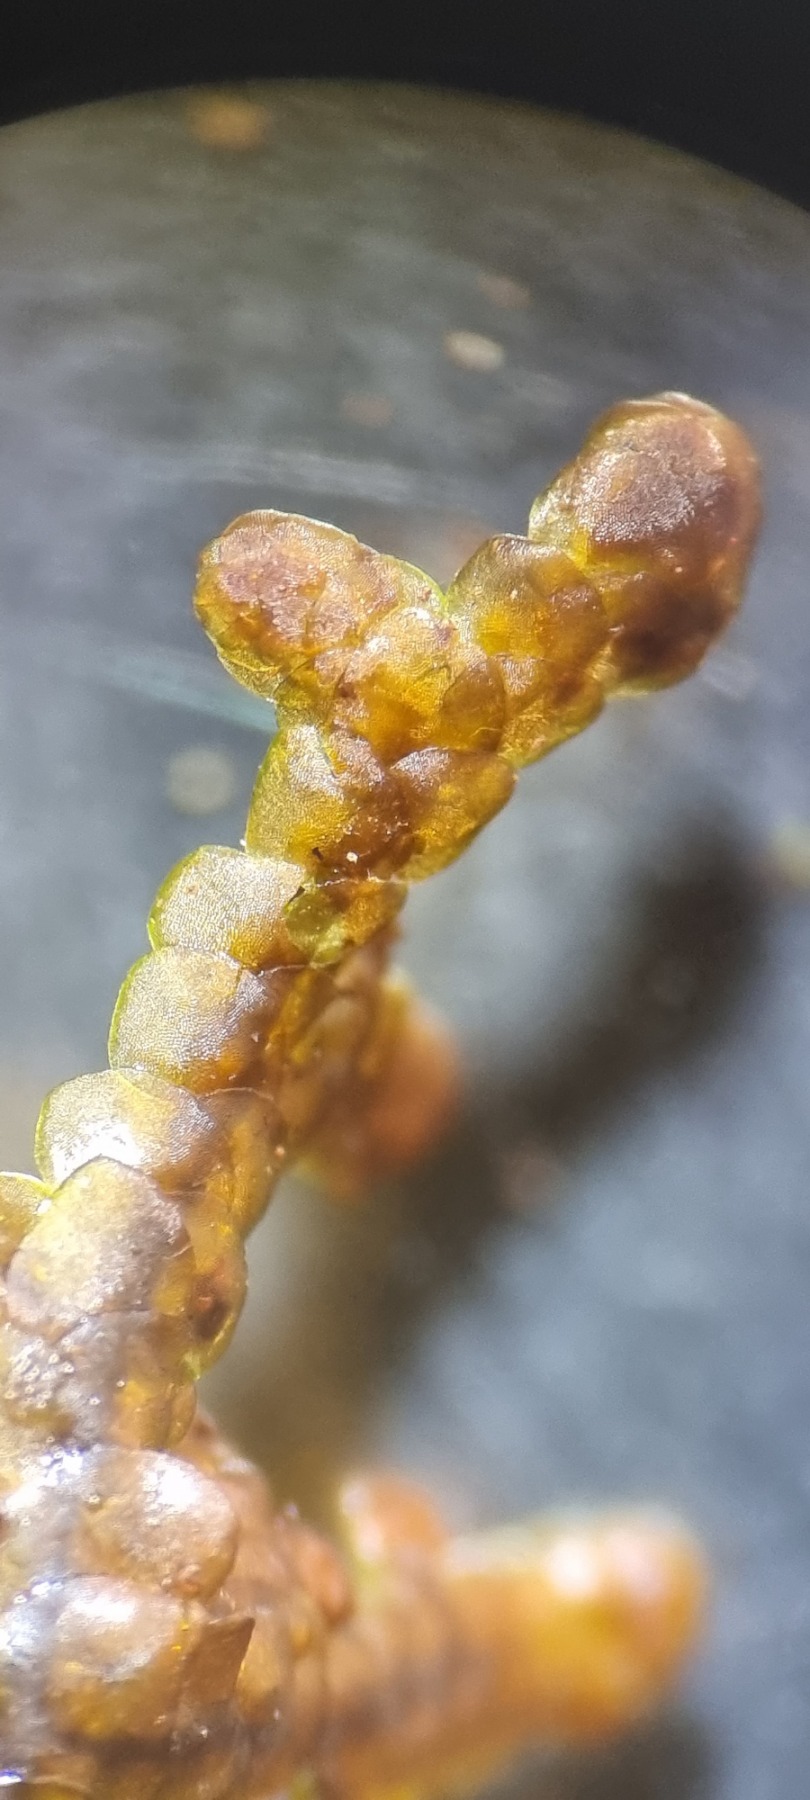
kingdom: Plantae
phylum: Marchantiophyta
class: Jungermanniopsida
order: Porellales
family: Frullaniaceae
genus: Frullania
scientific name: Frullania tamarisci
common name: Glinsende bronzemos
